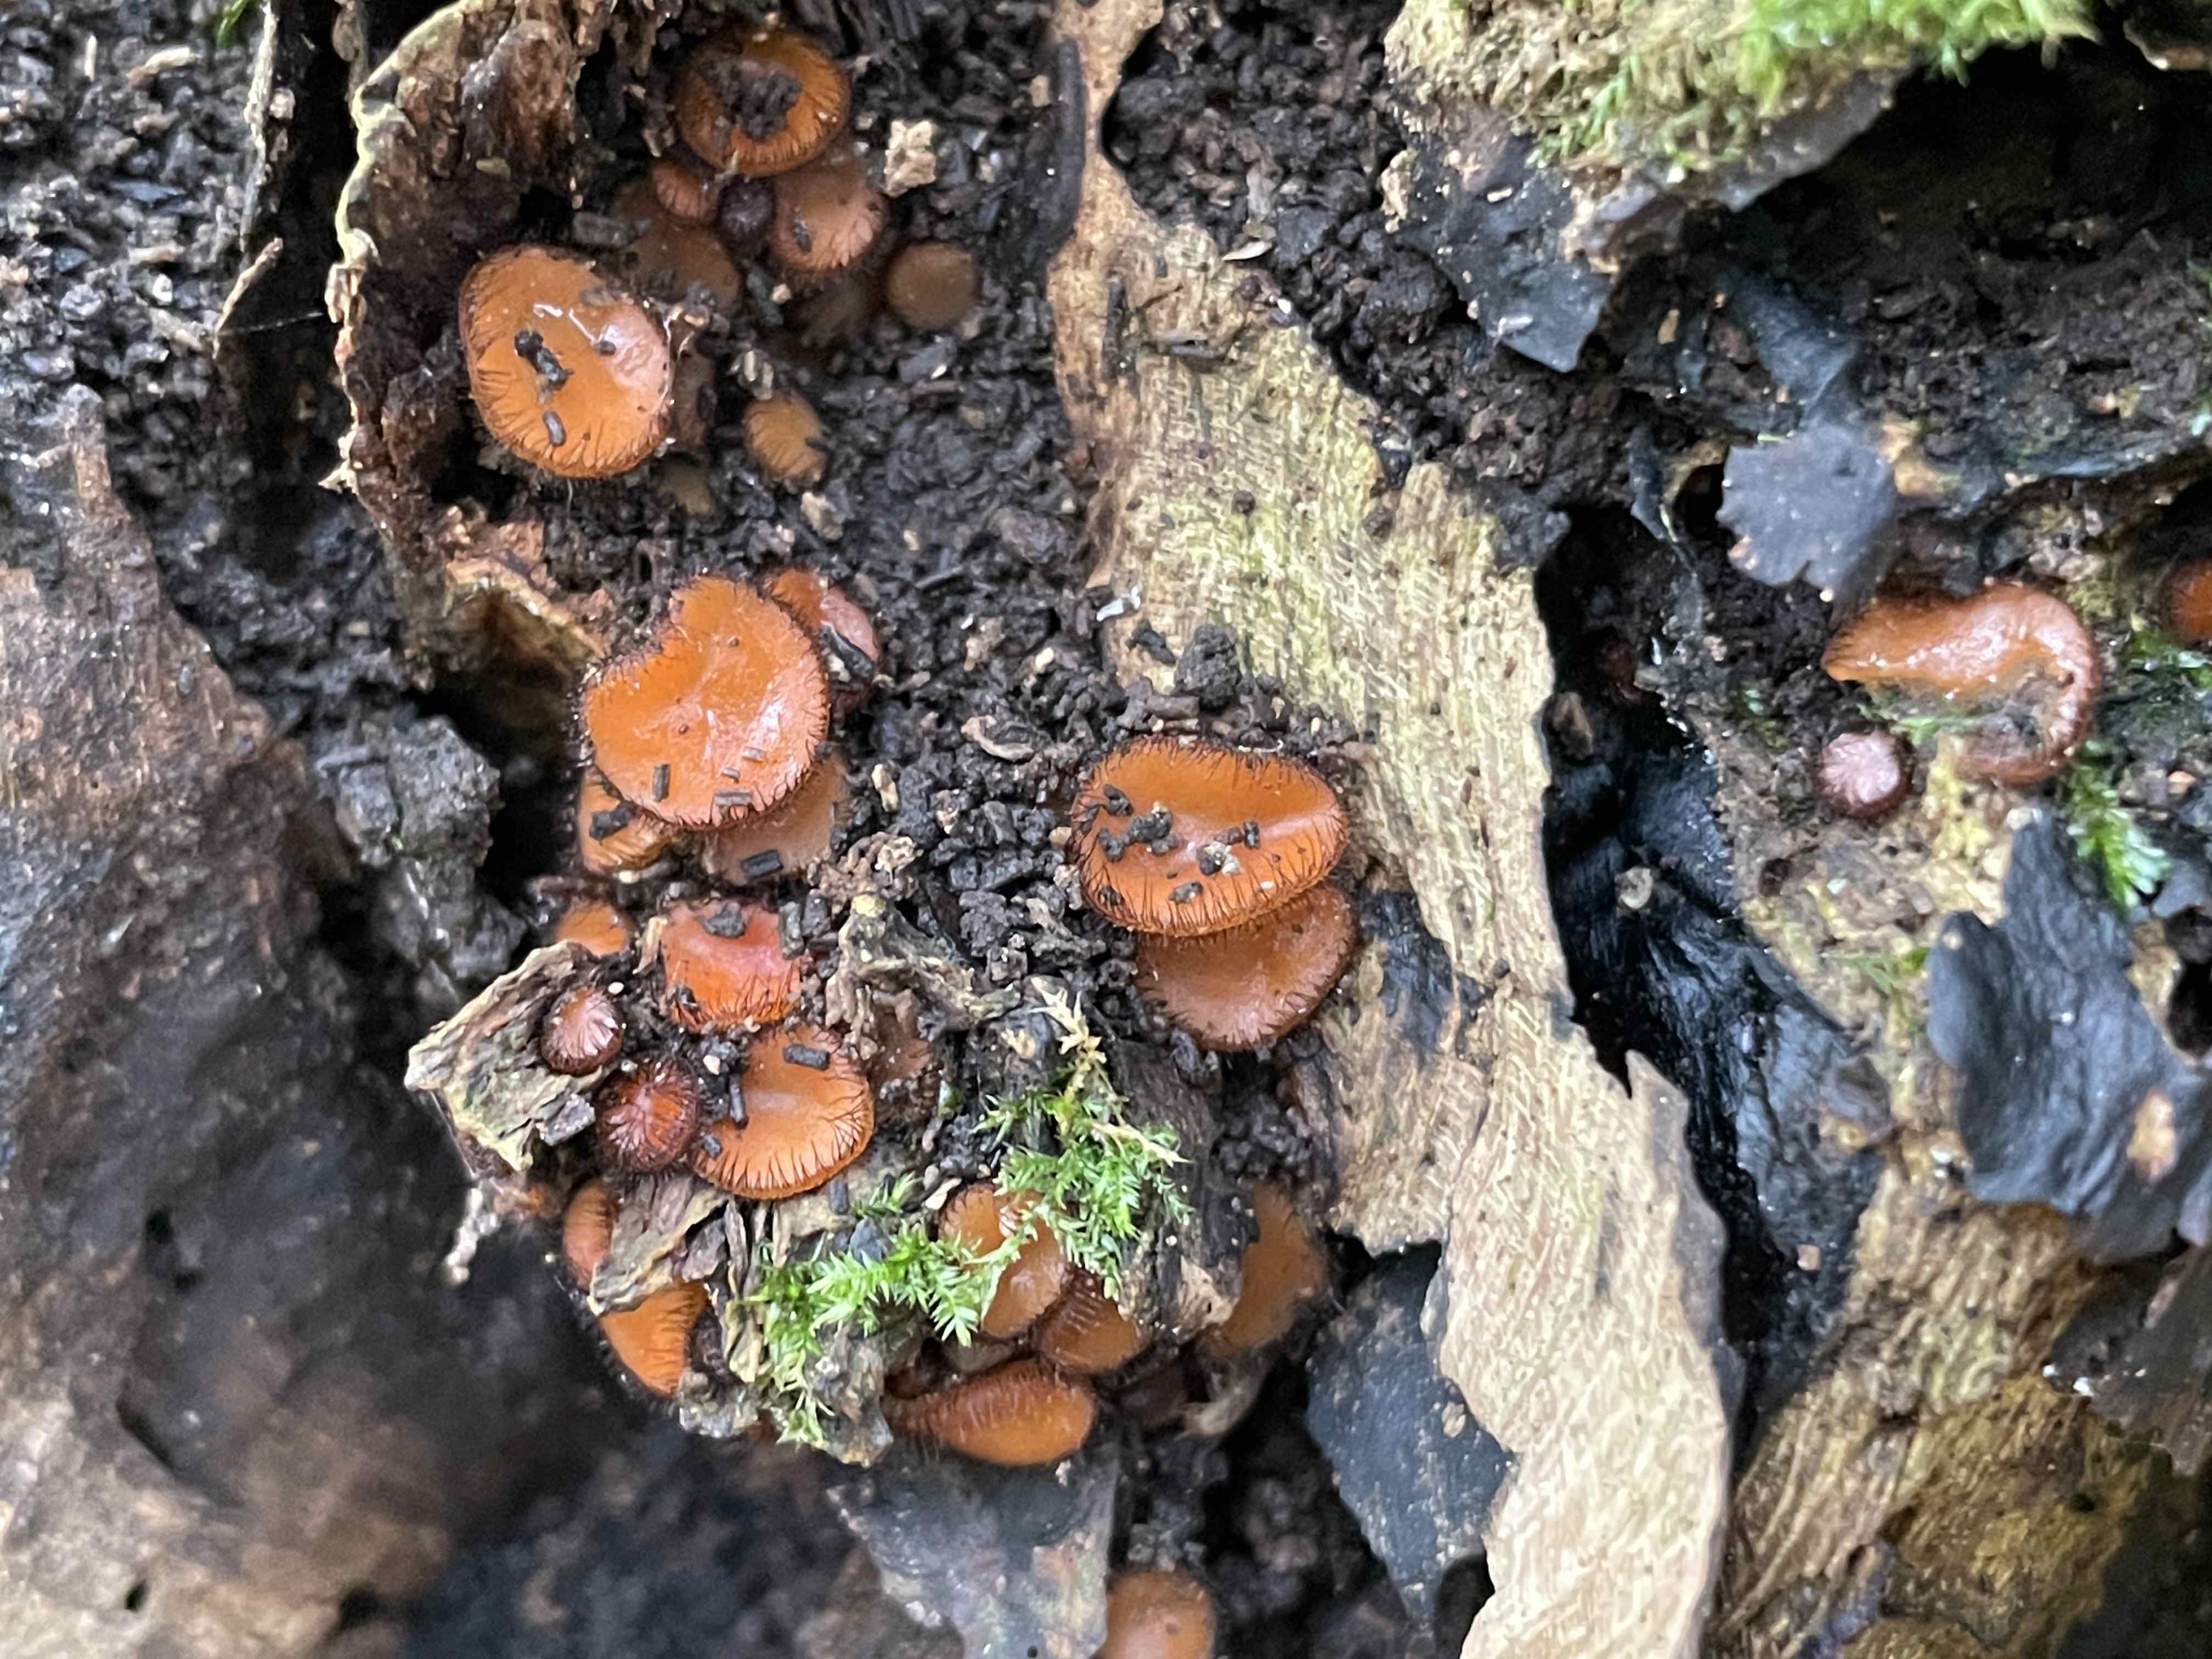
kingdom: Fungi
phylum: Ascomycota
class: Pezizomycetes
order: Pezizales
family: Pyronemataceae
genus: Scutellinia
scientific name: Scutellinia scutellata
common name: frynset skjoldbæger
